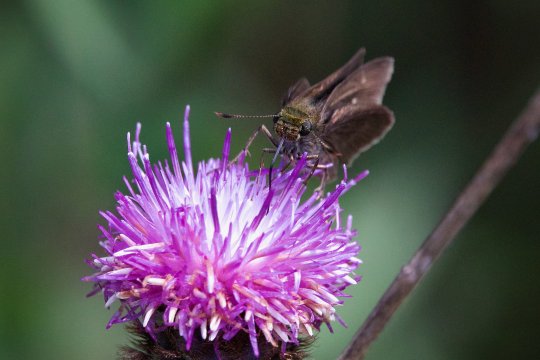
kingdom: Animalia
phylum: Arthropoda
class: Insecta
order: Lepidoptera
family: Hesperiidae
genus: Euphyes
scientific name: Euphyes vestris
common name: Dun Skipper
